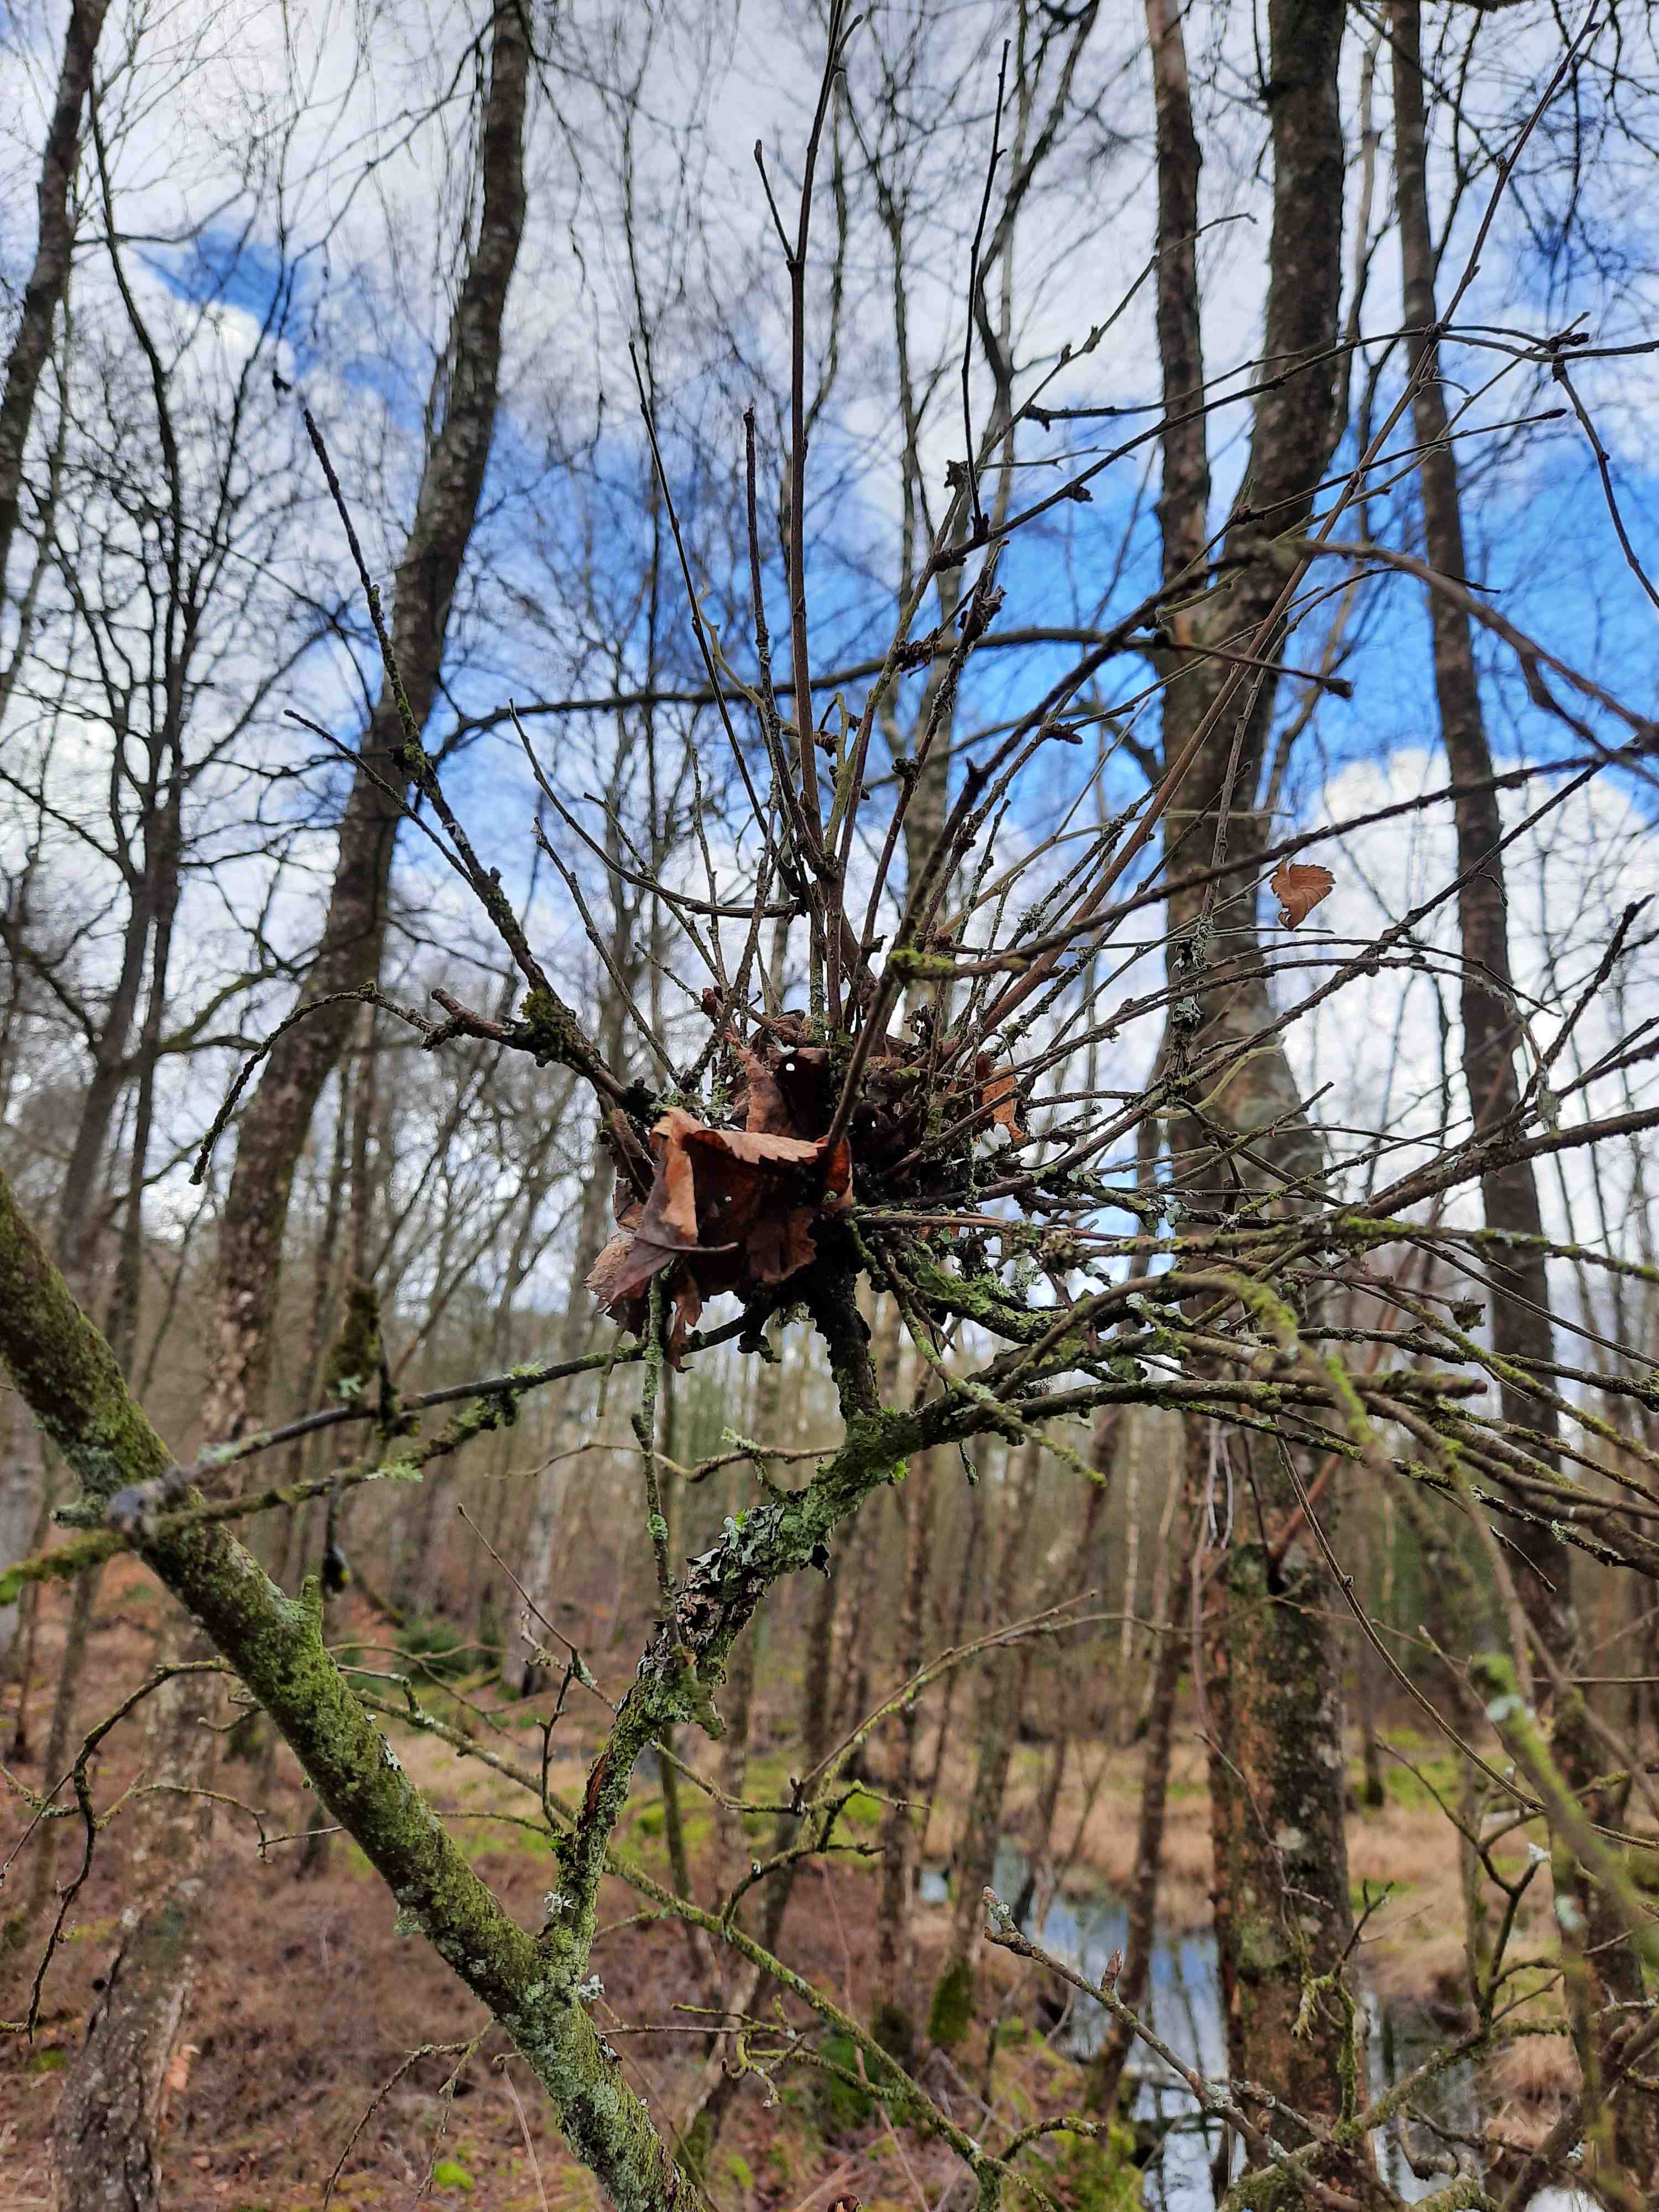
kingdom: Fungi
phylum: Ascomycota
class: Taphrinomycetes
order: Taphrinales
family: Taphrinaceae
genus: Taphrina
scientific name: Taphrina betulina
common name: hekse-sækdug
